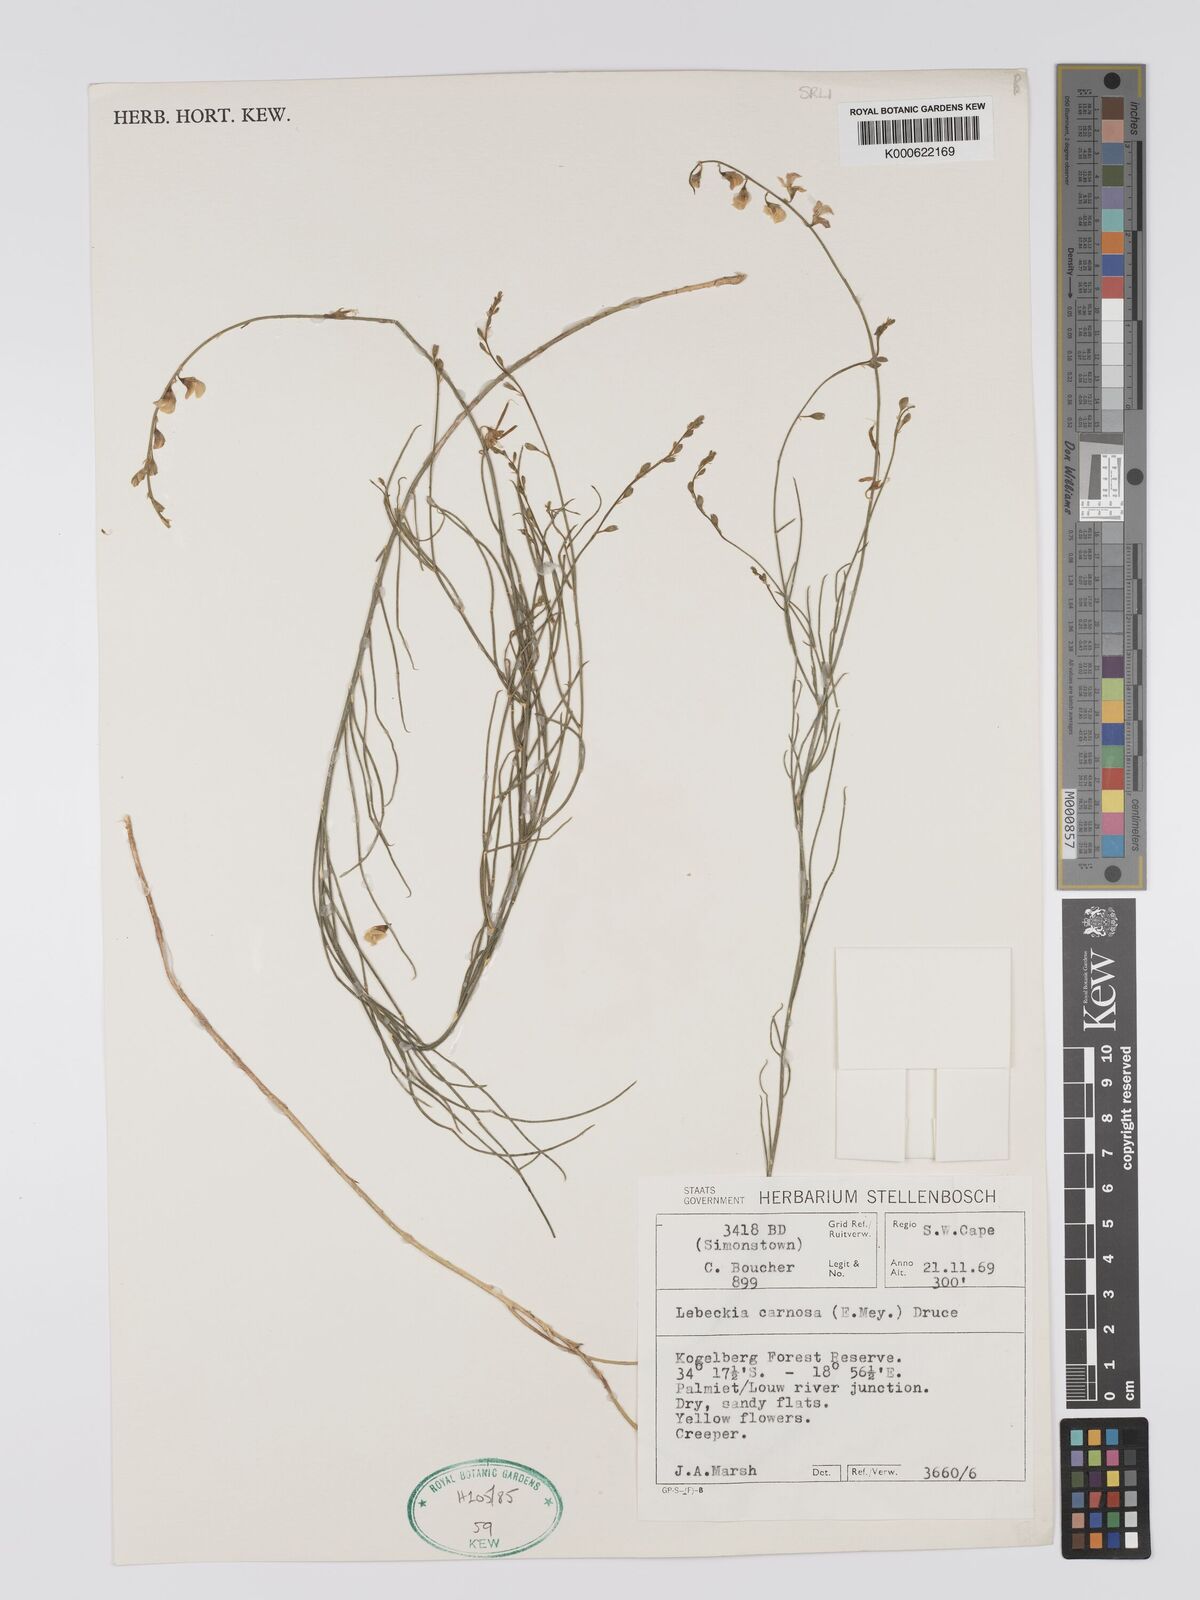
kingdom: Plantae
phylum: Tracheophyta
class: Magnoliopsida
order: Fabales
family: Fabaceae
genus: Lebeckia
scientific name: Lebeckia contaminata
